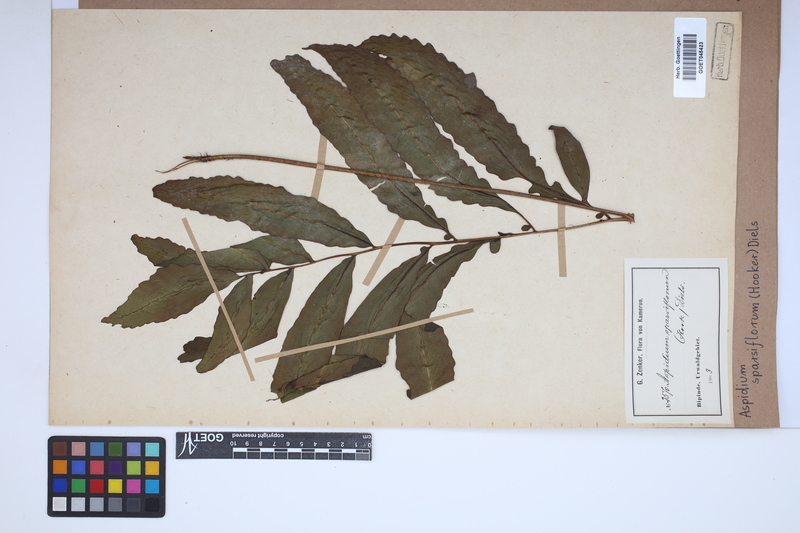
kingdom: Plantae
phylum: Tracheophyta
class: Polypodiopsida
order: Polypodiales
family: Tectariaceae
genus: Triplophyllum
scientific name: Triplophyllum varians
